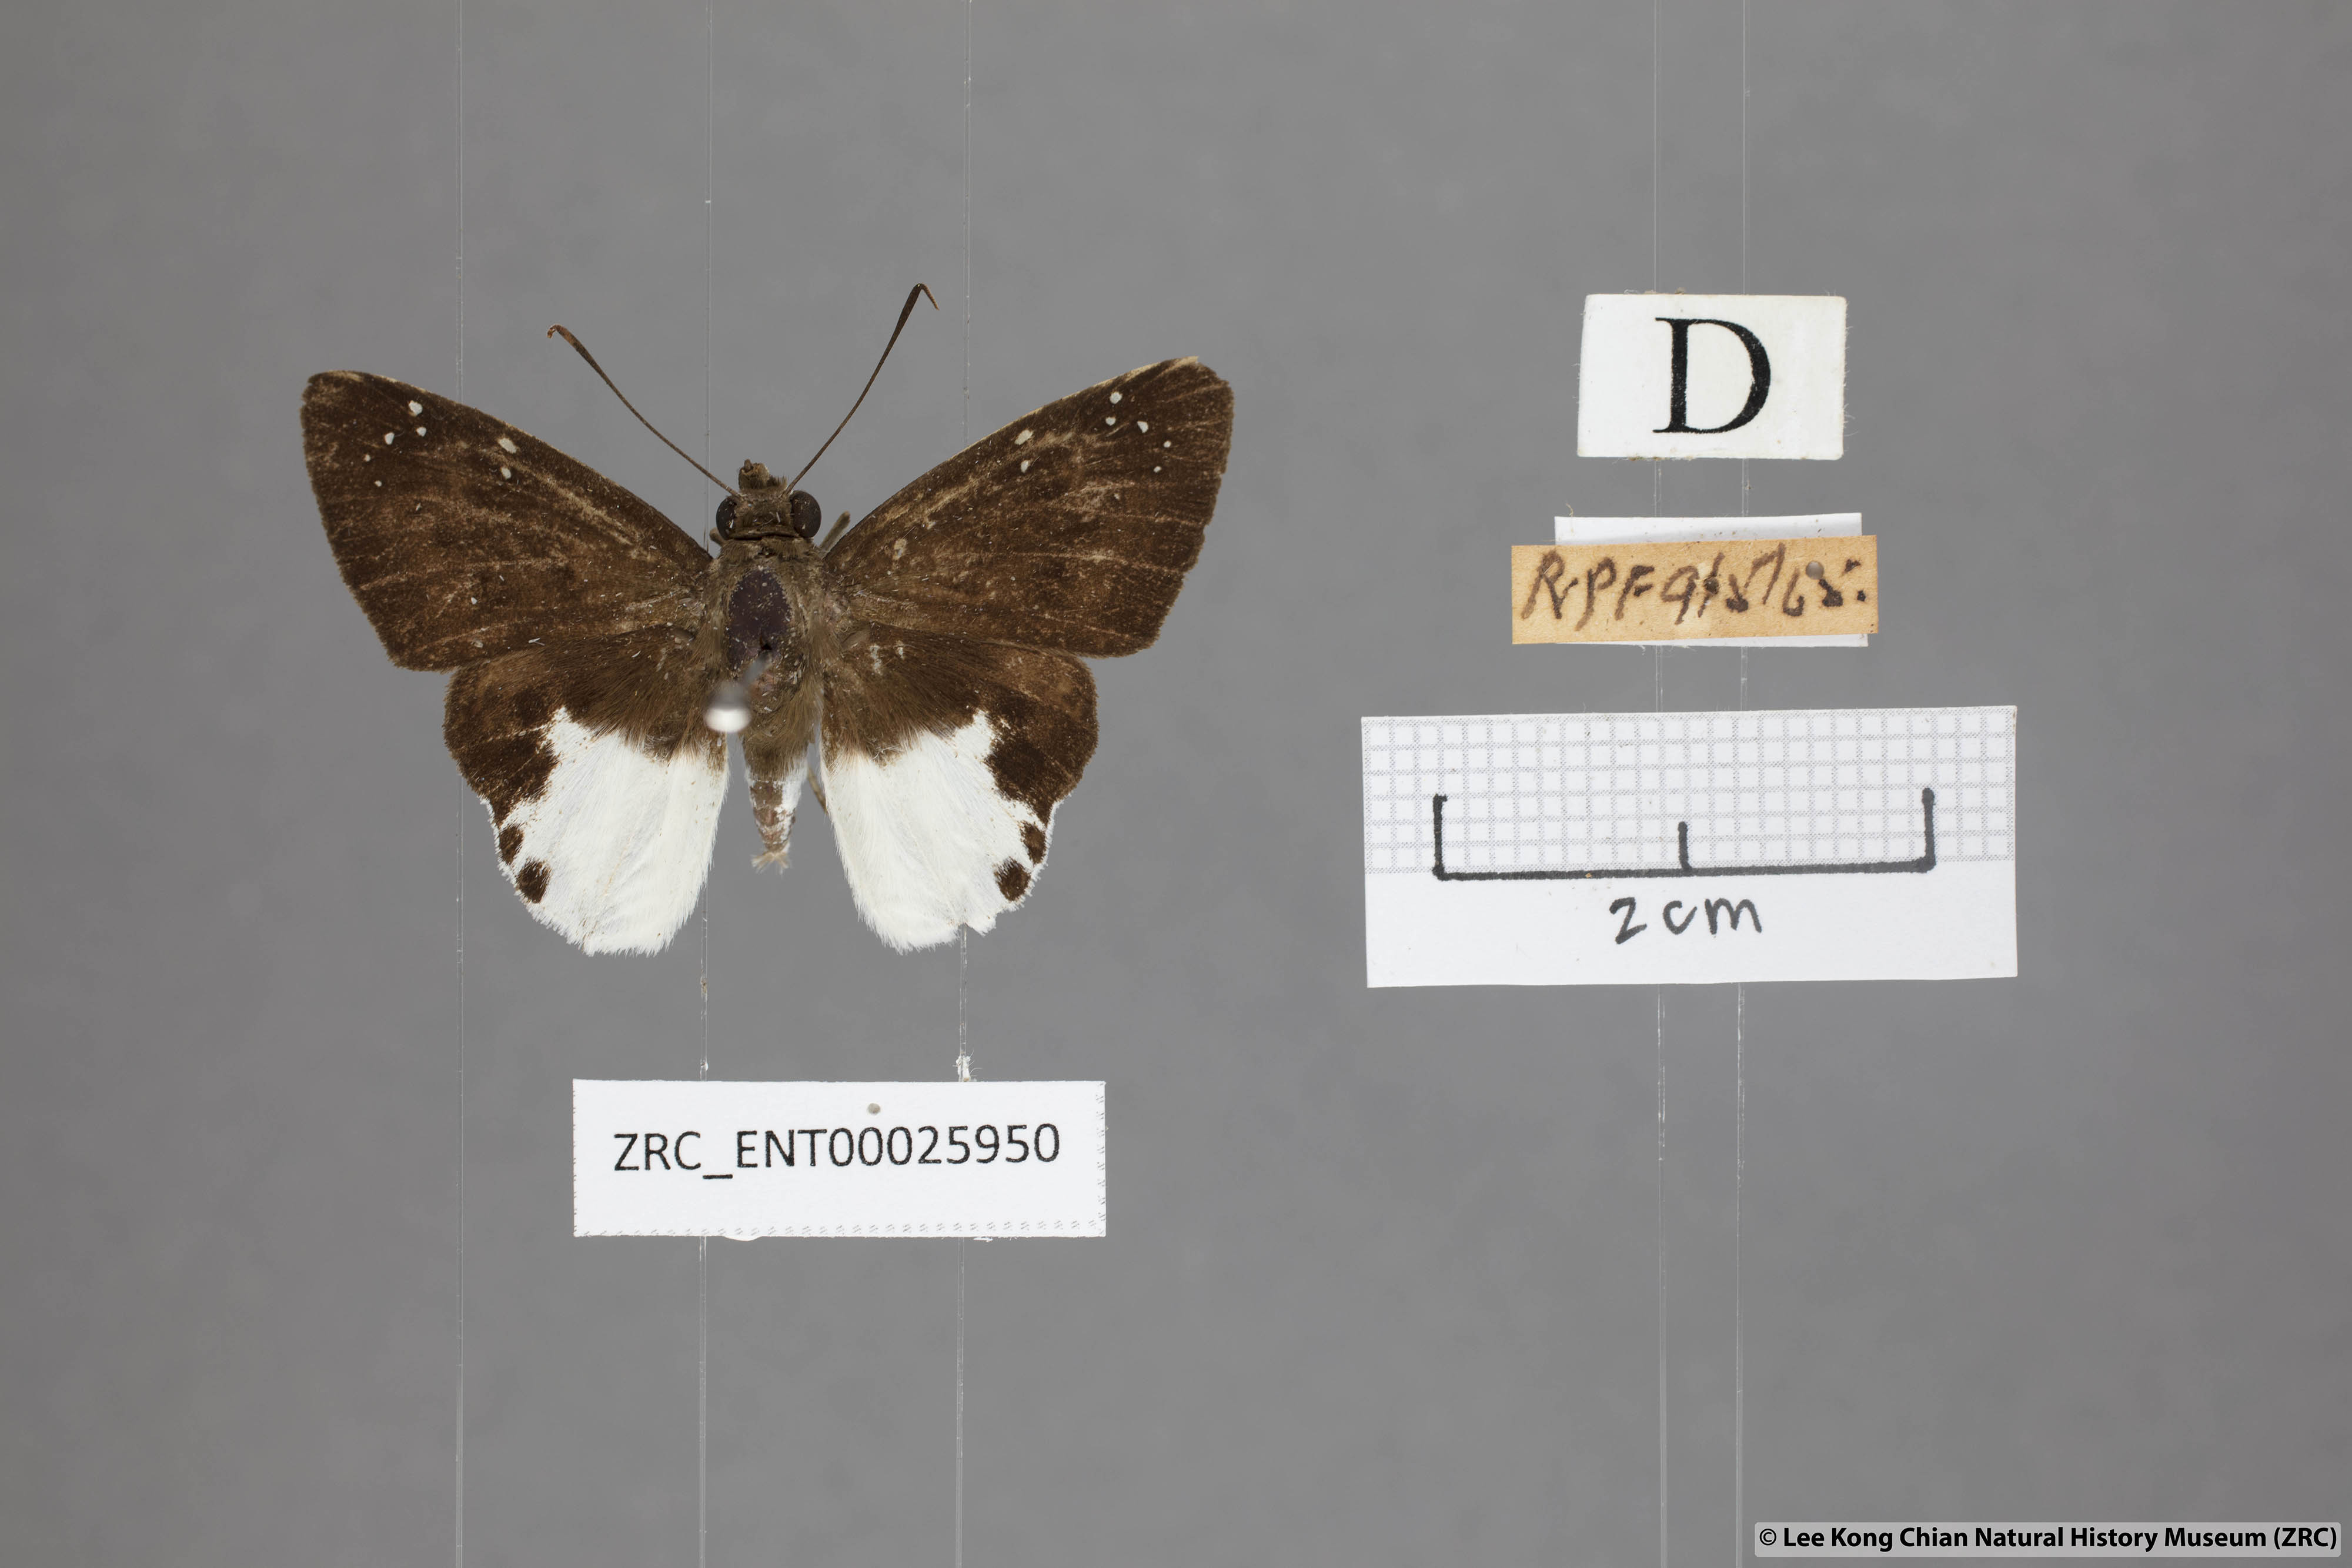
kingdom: Animalia
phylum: Arthropoda
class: Insecta
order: Lepidoptera
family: Hesperiidae
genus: Tagiades
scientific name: Tagiades calligana
